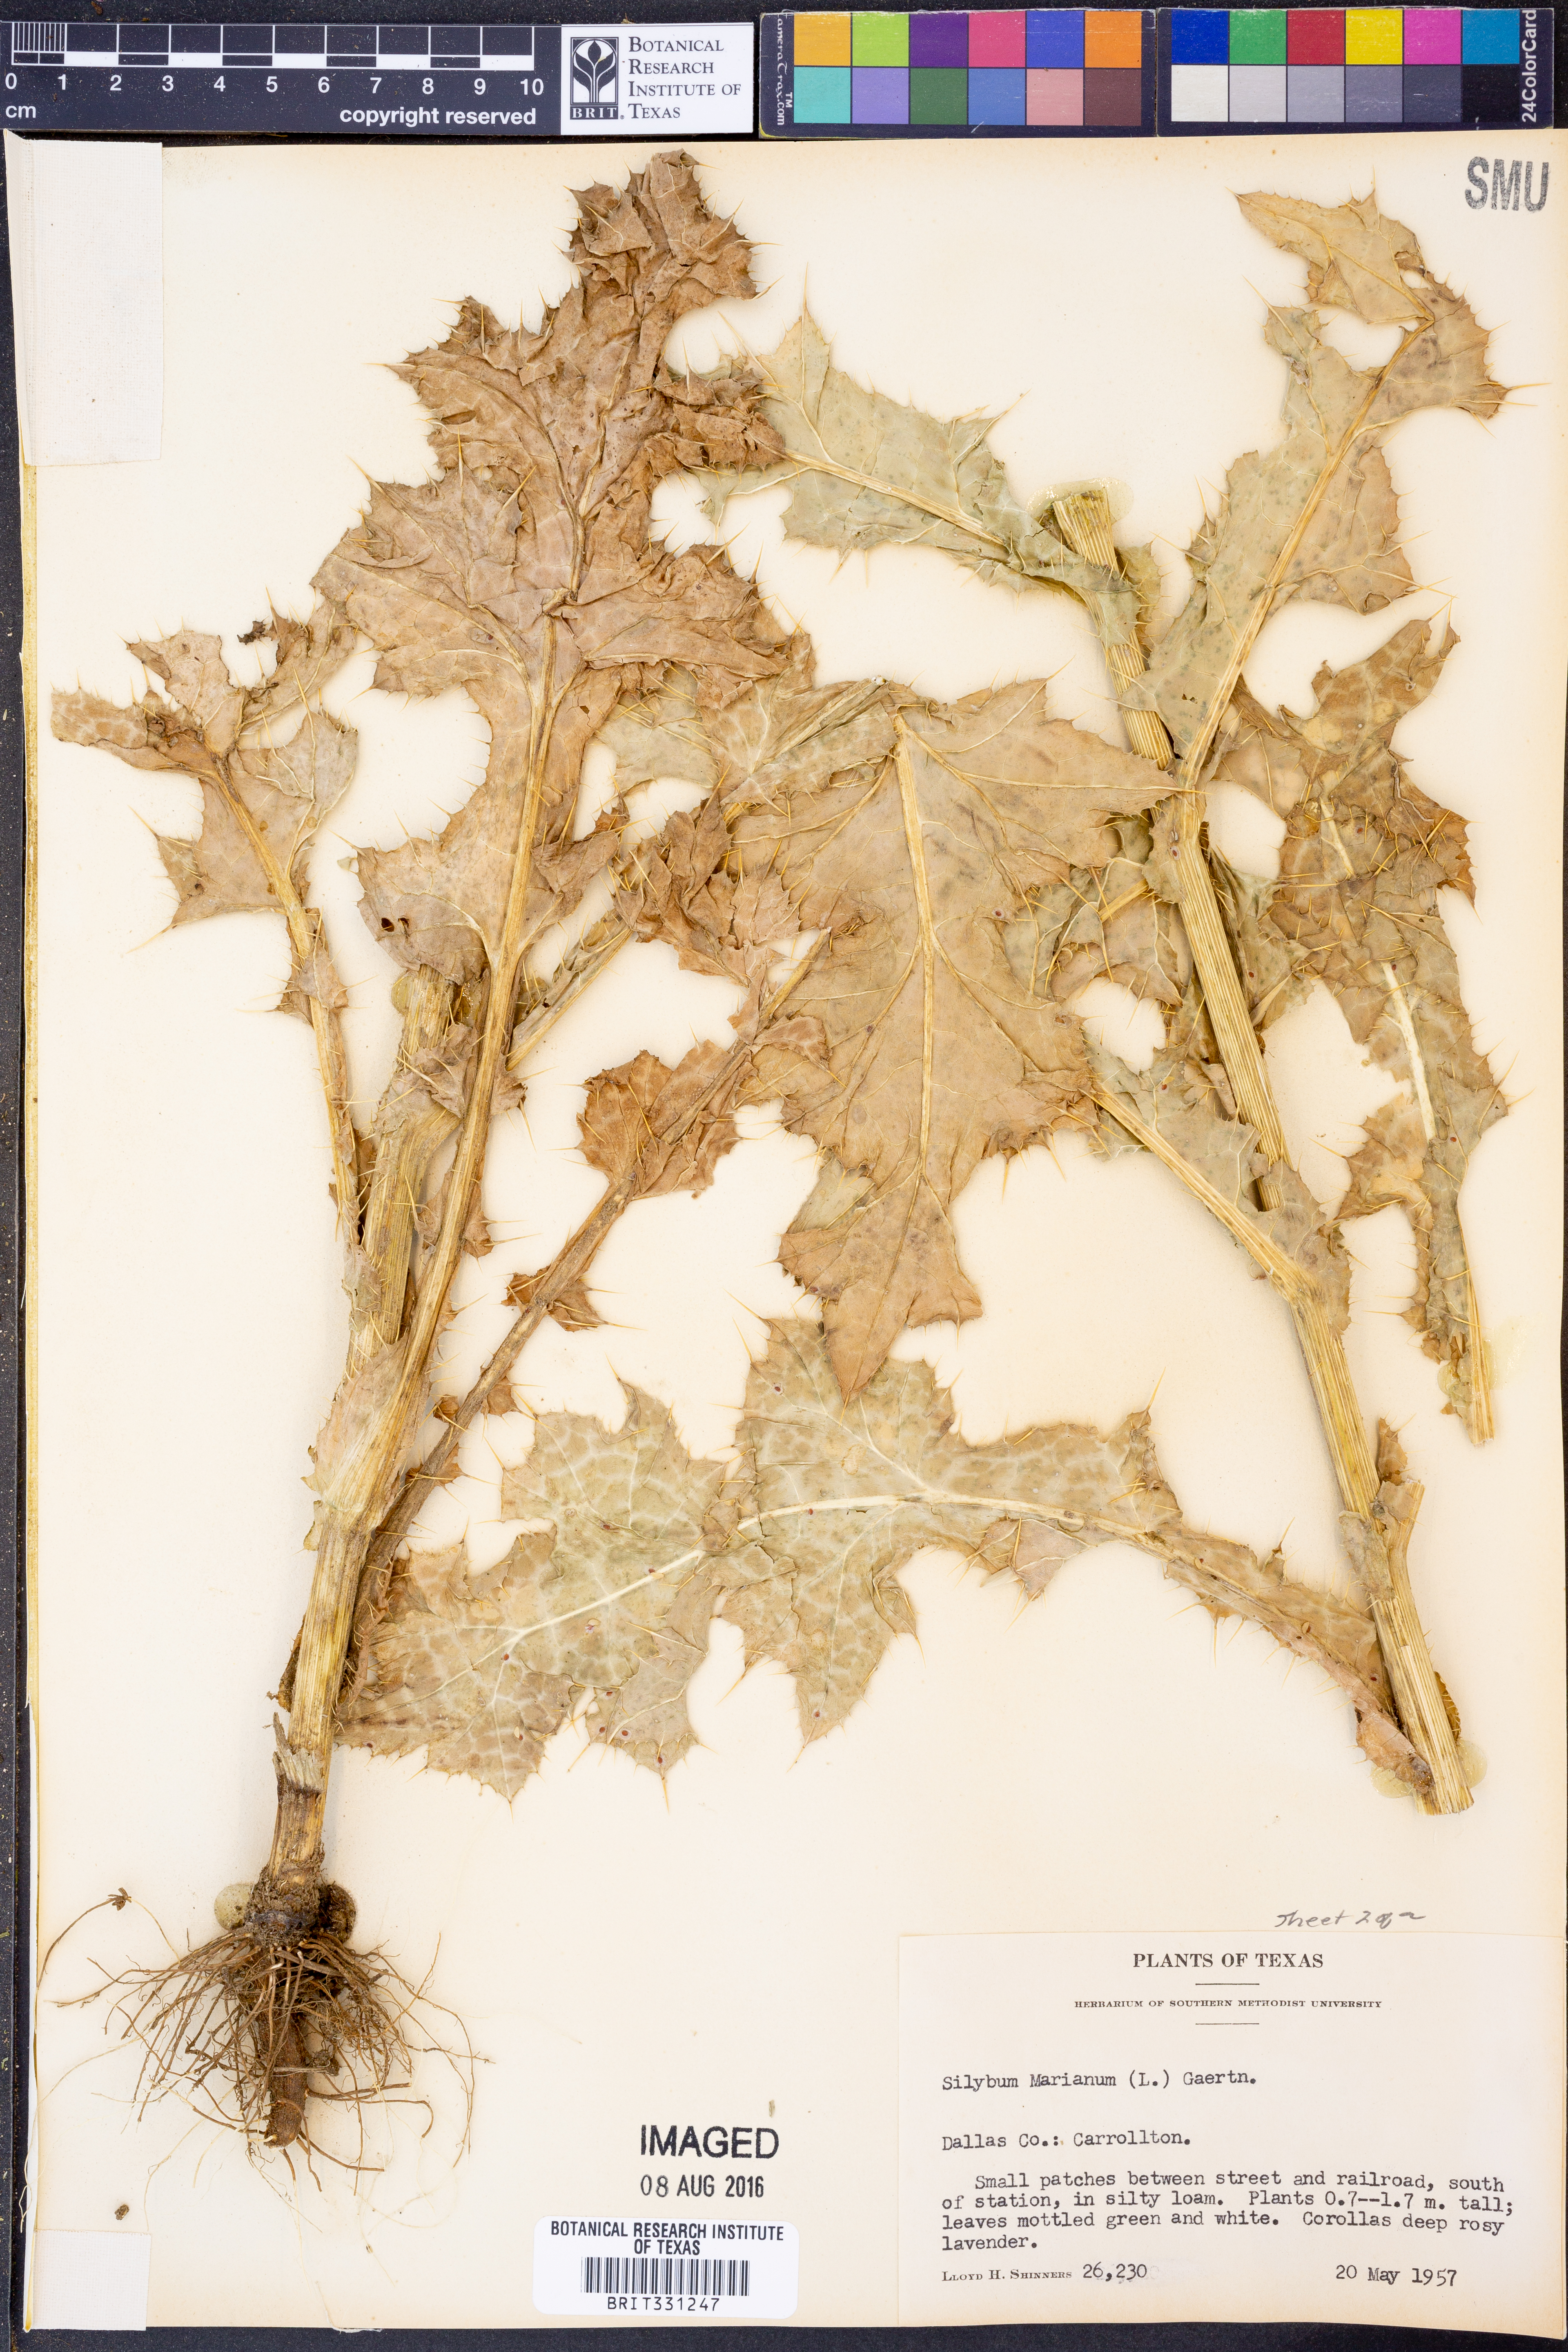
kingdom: Plantae
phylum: Tracheophyta
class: Magnoliopsida
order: Asterales
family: Asteraceae
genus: Silybum
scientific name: Silybum marianum
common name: Milk thistle
